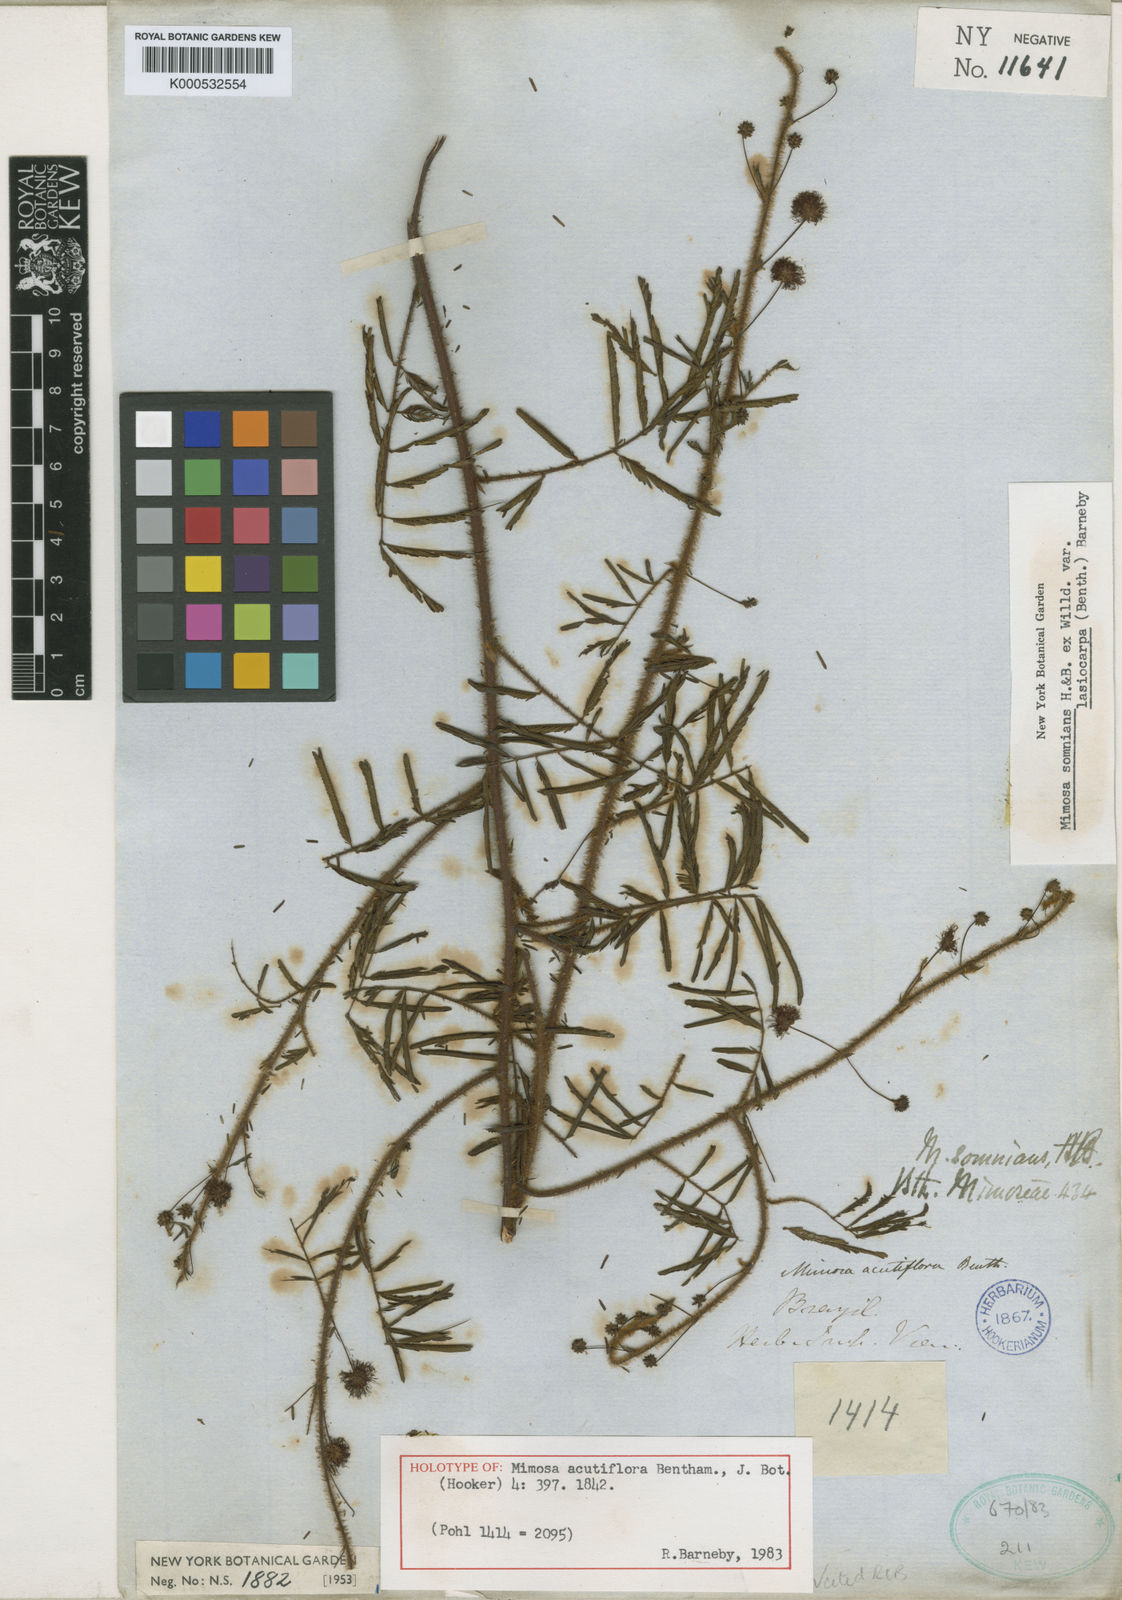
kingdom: Plantae
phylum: Tracheophyta
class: Magnoliopsida
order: Fabales
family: Fabaceae
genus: Mimosa
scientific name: Mimosa somnians
